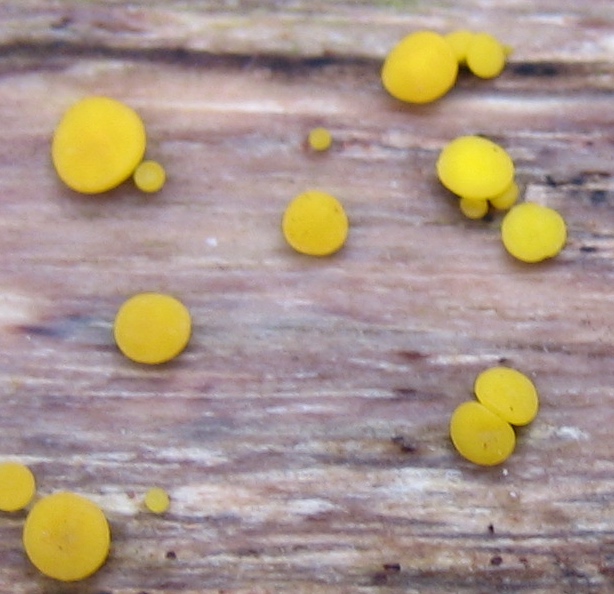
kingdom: Fungi
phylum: Ascomycota
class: Leotiomycetes
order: Helotiales
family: Pezizellaceae
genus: Calycina
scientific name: Calycina citrina
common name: almindelig gulskive
